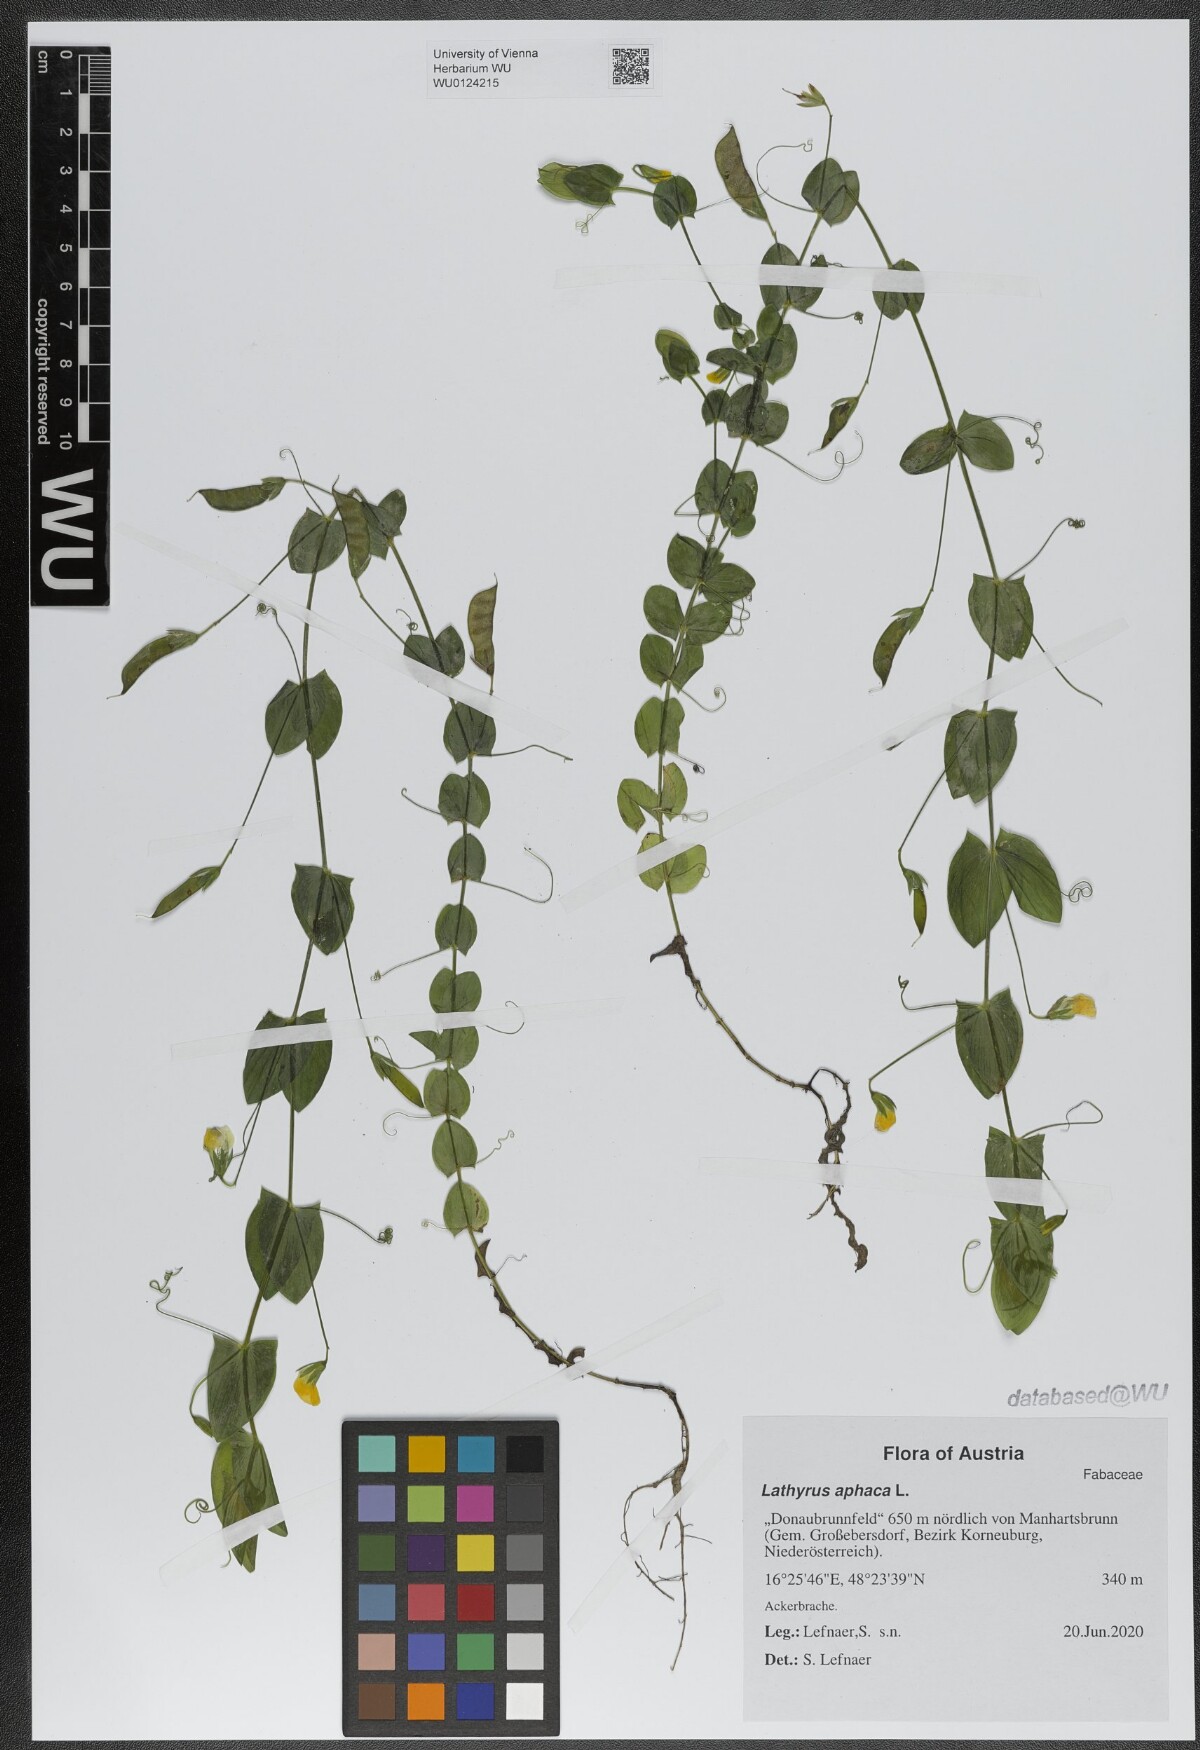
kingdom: Plantae
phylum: Tracheophyta
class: Magnoliopsida
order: Fabales
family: Fabaceae
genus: Lathyrus
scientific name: Lathyrus aphaca
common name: Yellow vetchling
